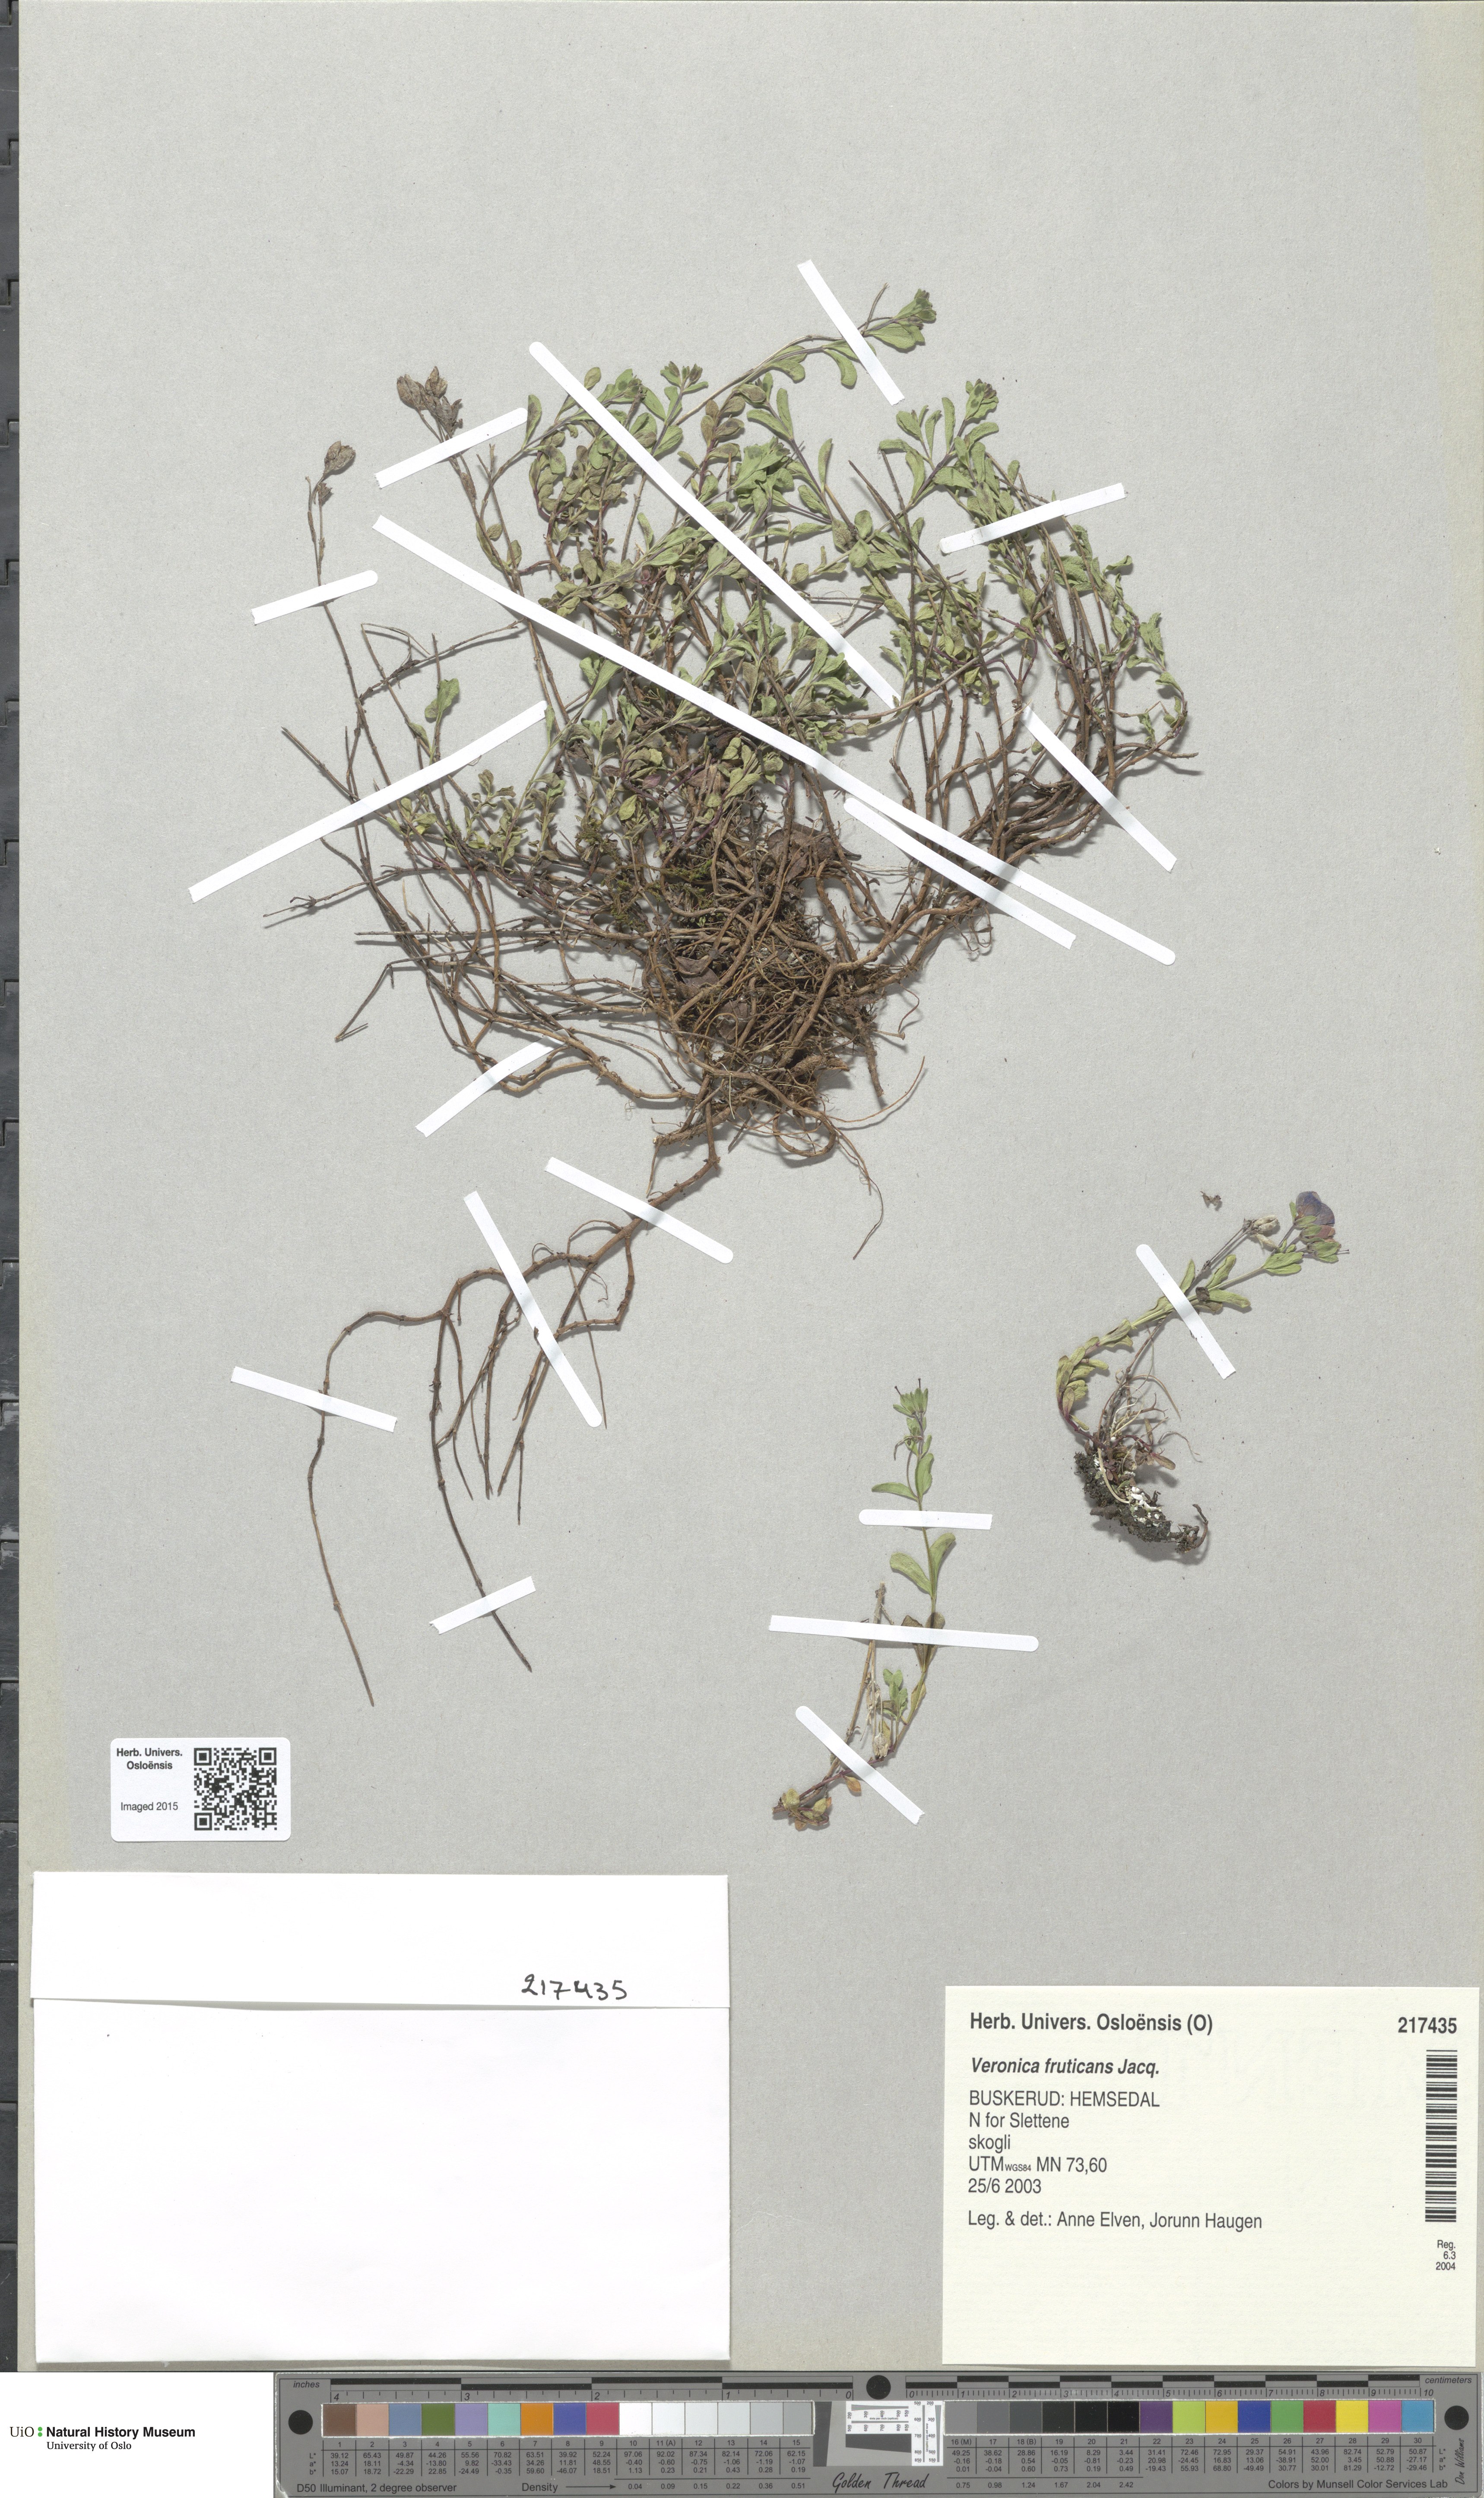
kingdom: Plantae
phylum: Tracheophyta
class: Magnoliopsida
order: Lamiales
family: Plantaginaceae
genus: Veronica
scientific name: Veronica fruticans
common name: Rock speedwell
